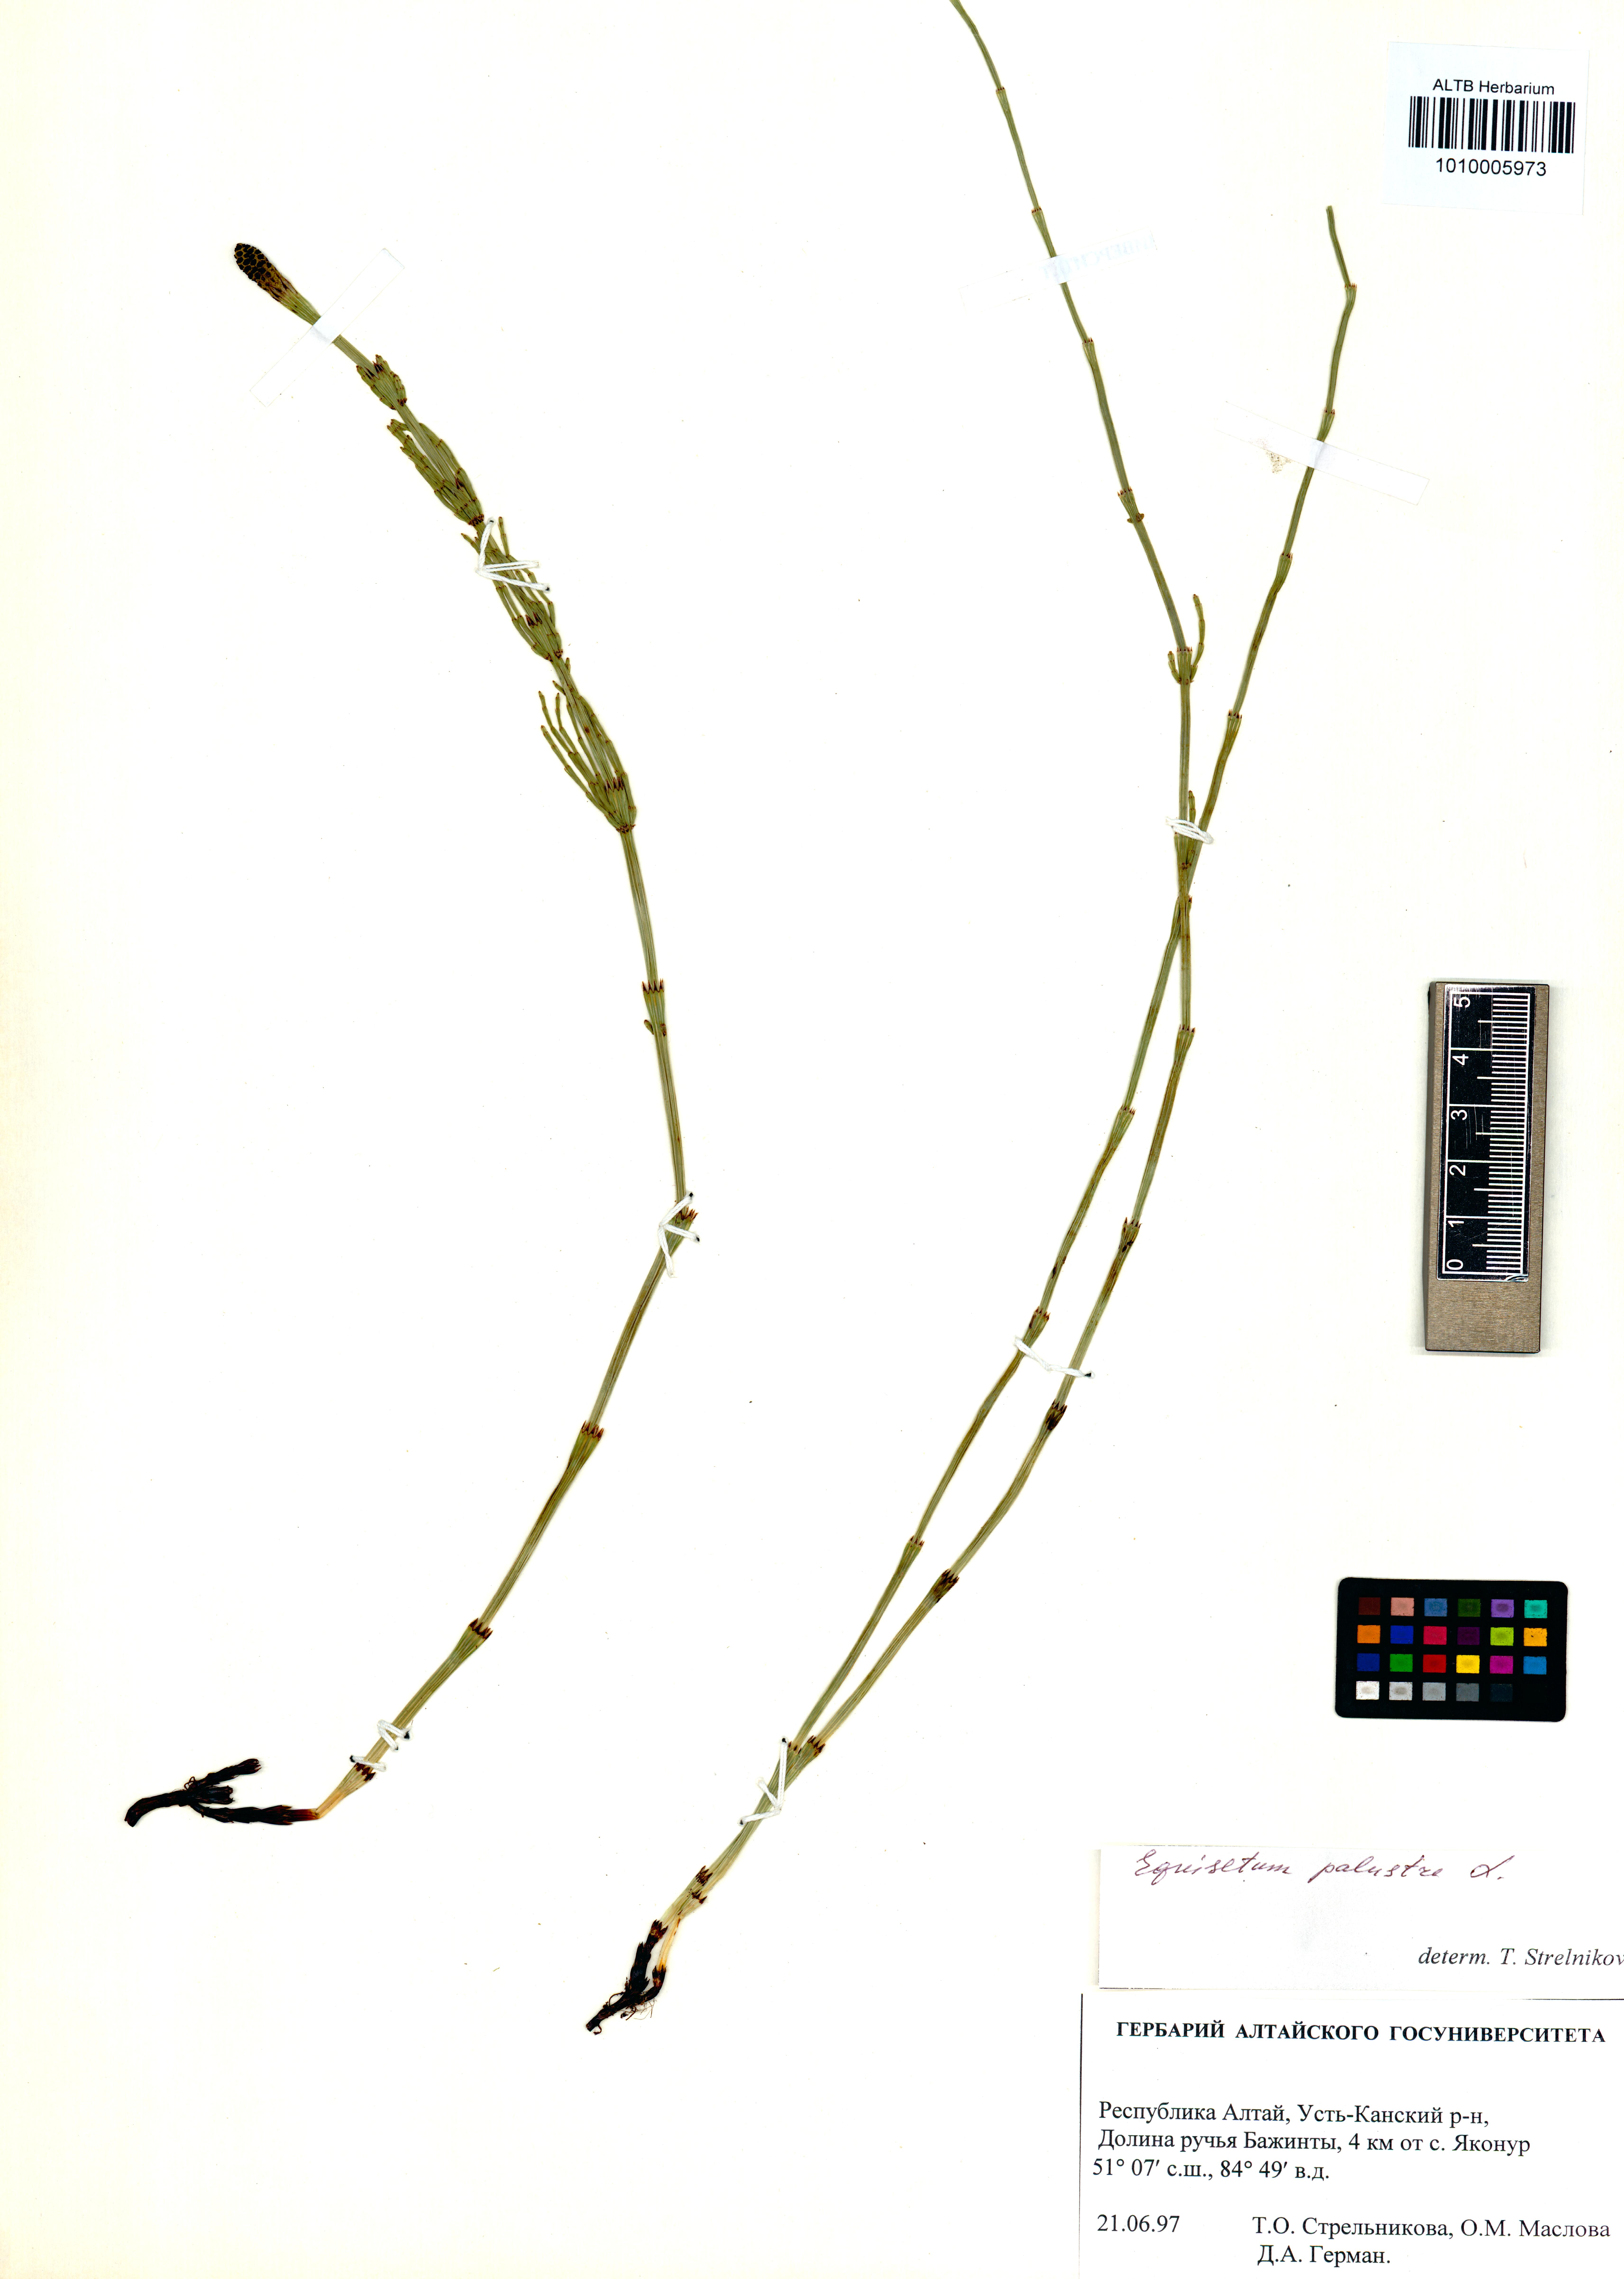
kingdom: Plantae
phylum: Tracheophyta
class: Polypodiopsida
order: Equisetales
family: Equisetaceae
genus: Equisetum
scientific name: Equisetum palustre
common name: Marsh horsetail
